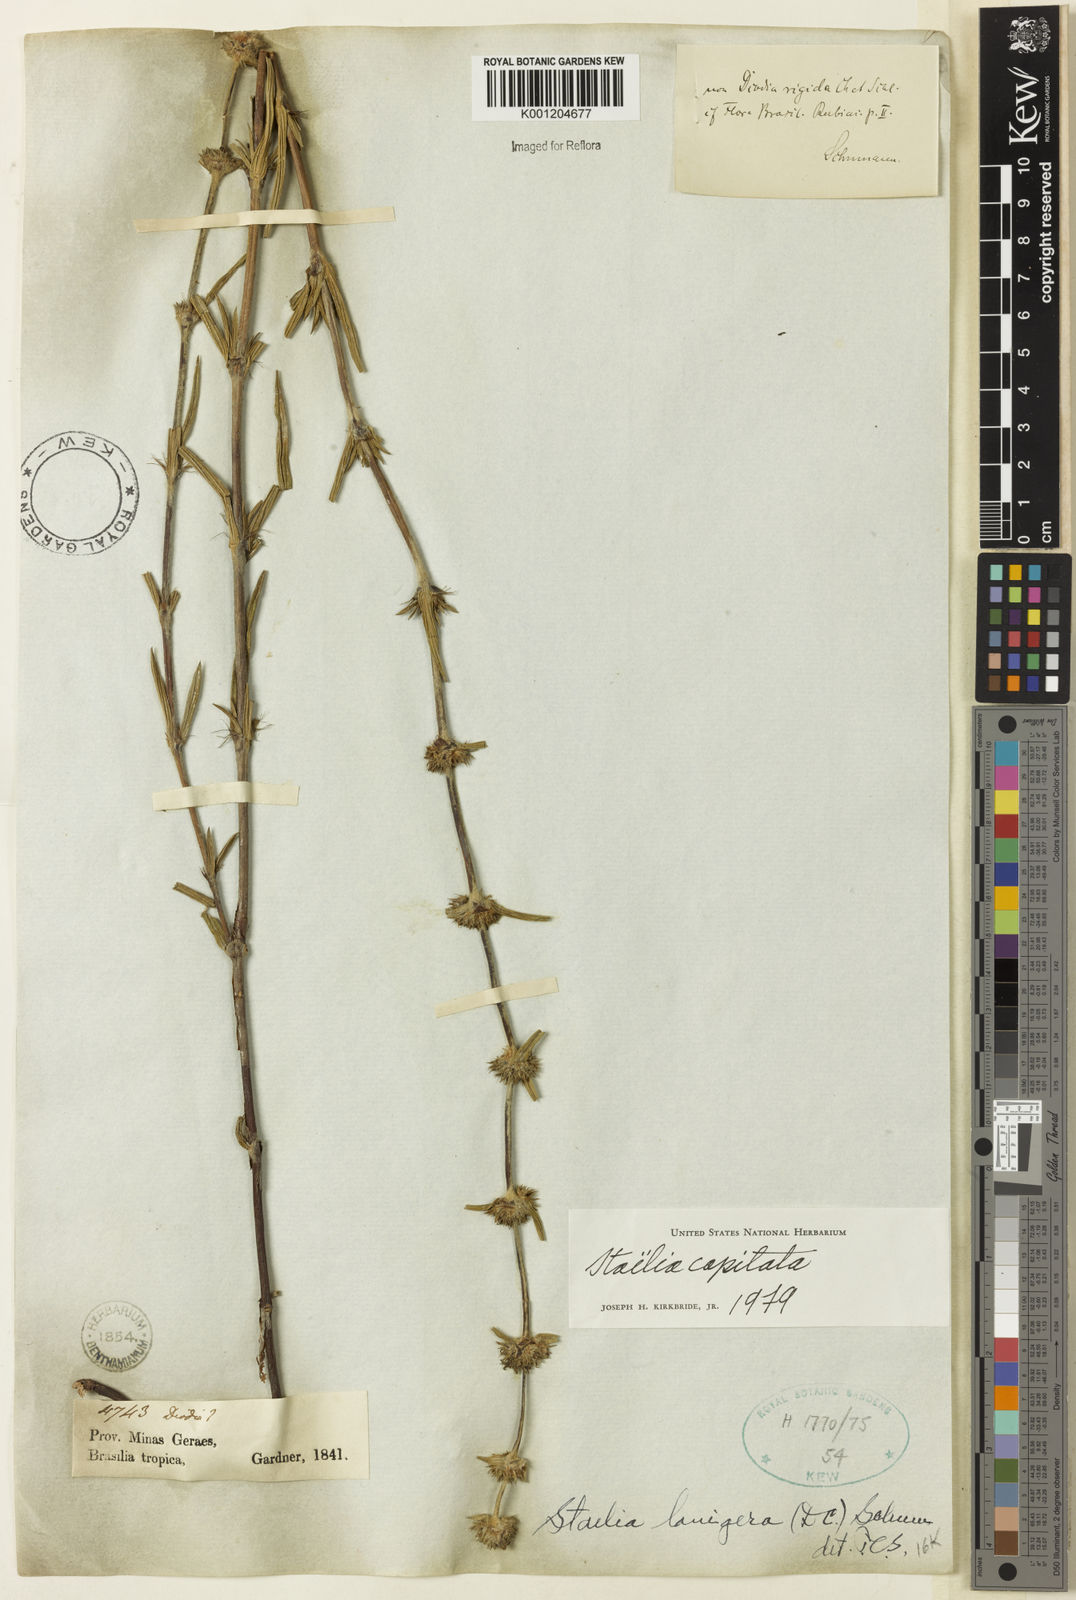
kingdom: Plantae
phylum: Tracheophyta
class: Magnoliopsida
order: Gentianales
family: Rubiaceae
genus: Planaltina
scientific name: Planaltina capitata
